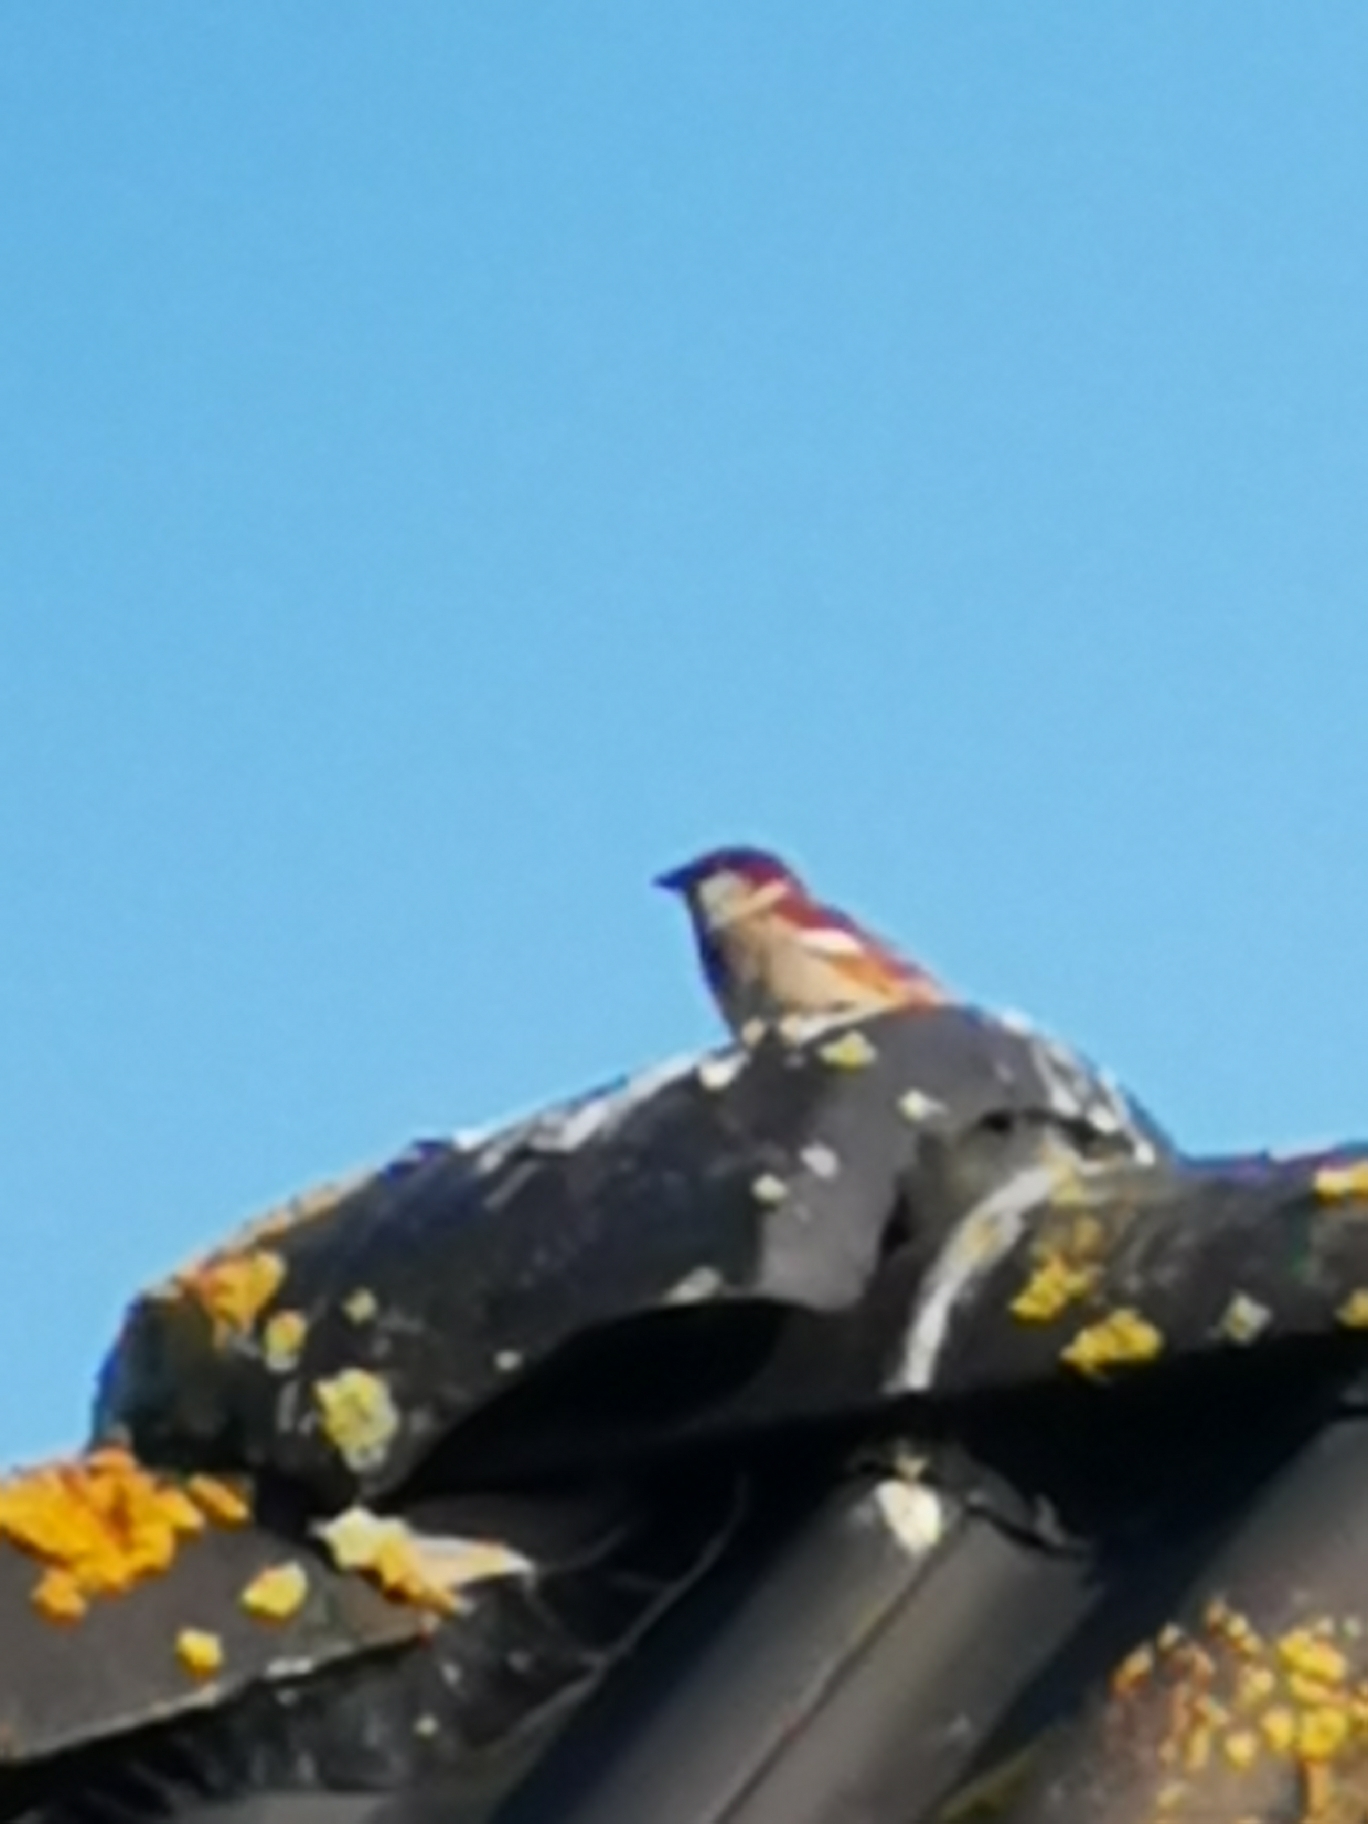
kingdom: Animalia
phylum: Chordata
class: Aves
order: Passeriformes
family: Passeridae
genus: Passer
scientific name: Passer domesticus
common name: Gråspurv
